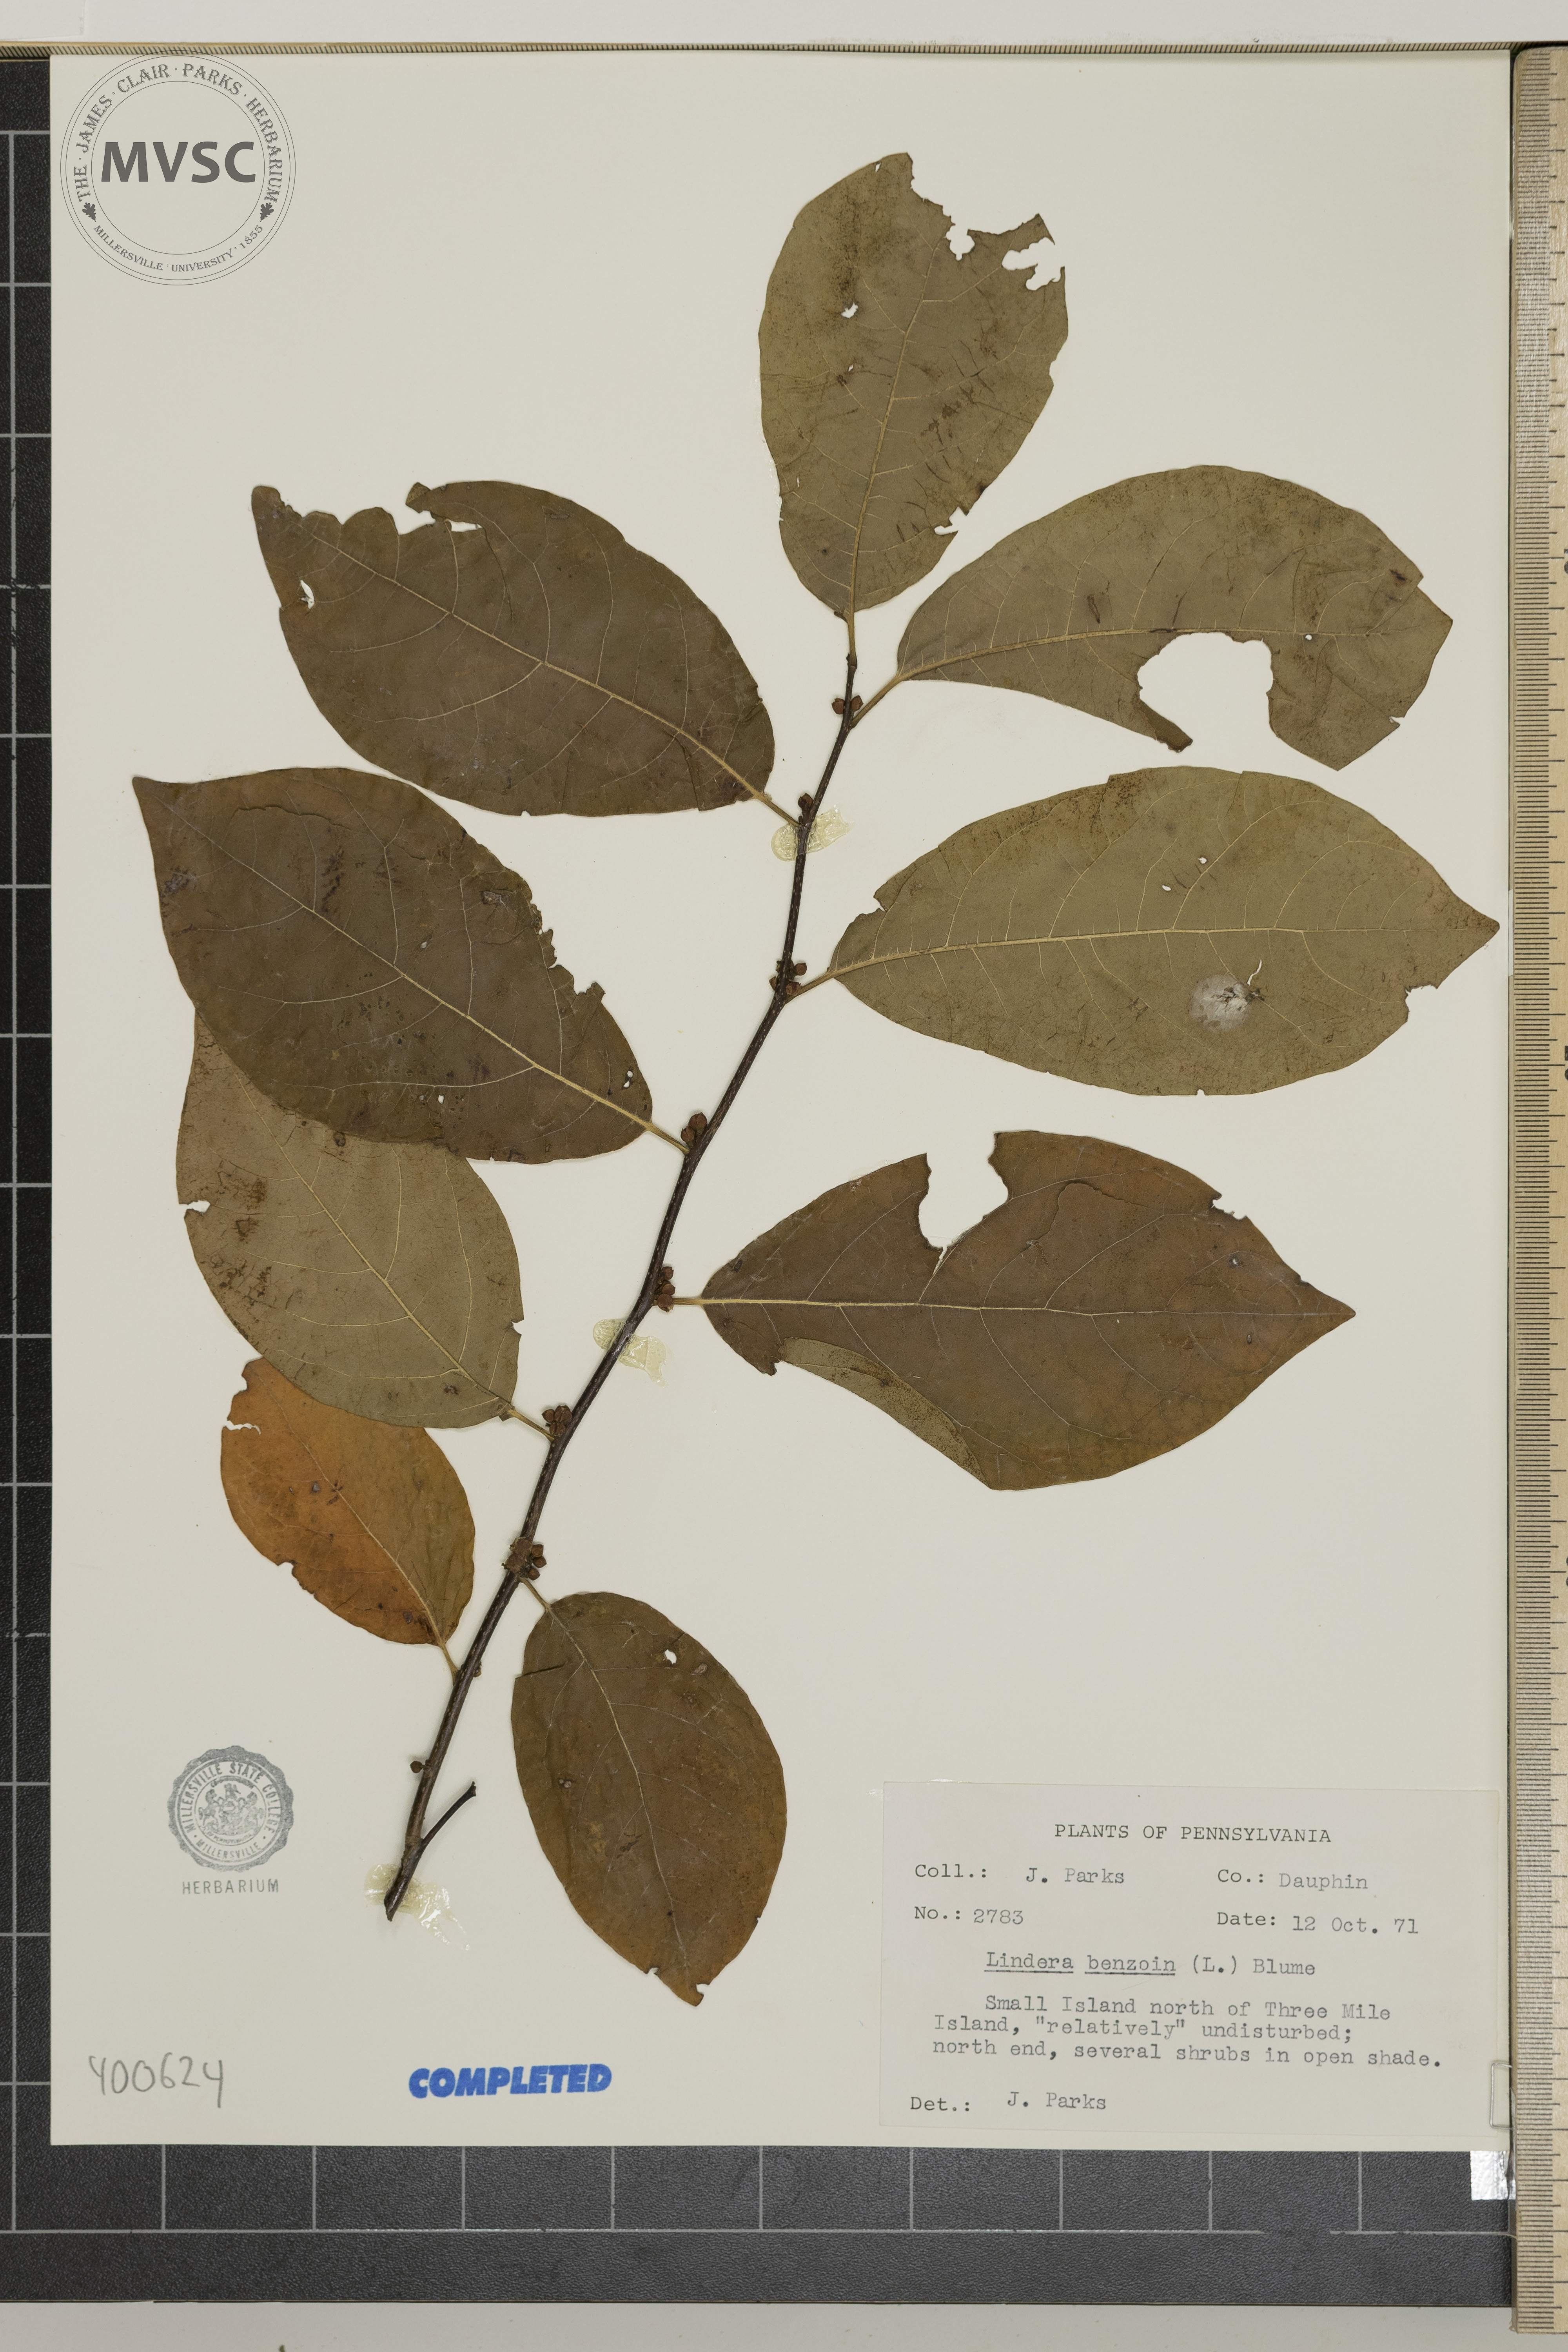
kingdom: Plantae
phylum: Tracheophyta
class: Magnoliopsida
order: Laurales
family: Lauraceae
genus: Lindera
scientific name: Lindera benzoin
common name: spicebush
